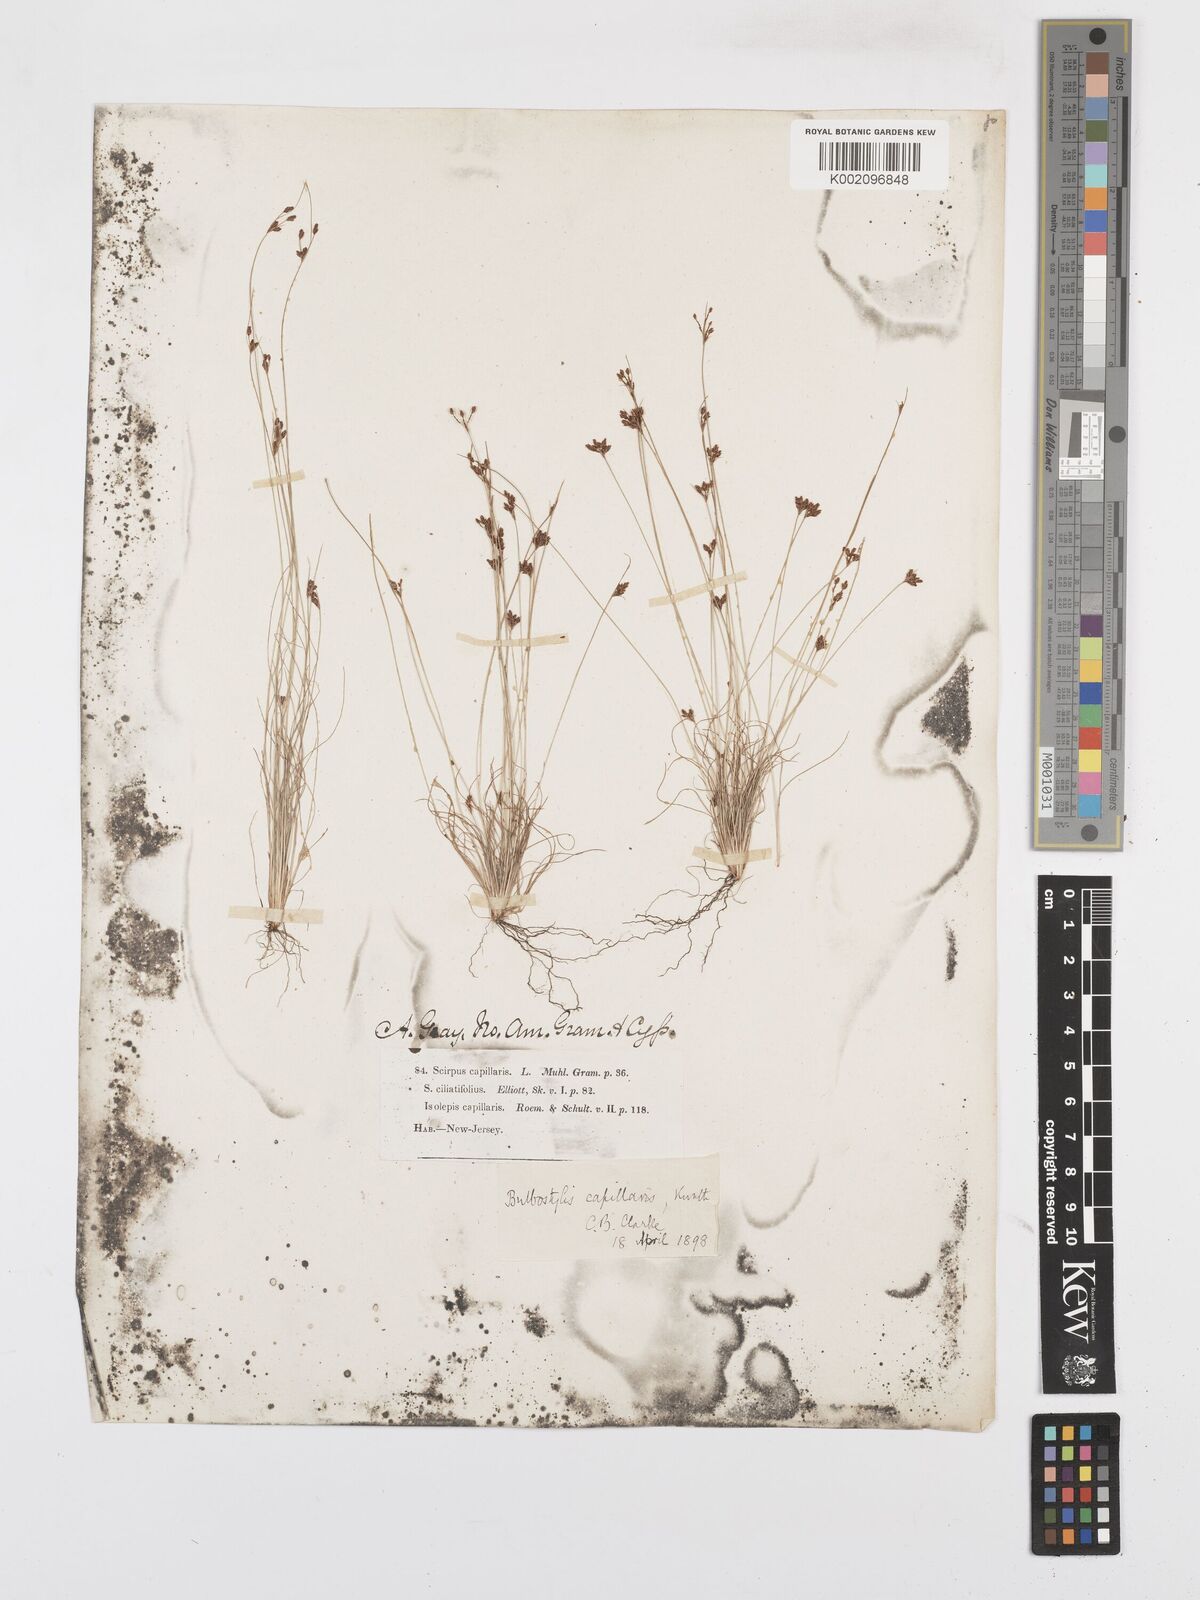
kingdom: Plantae
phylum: Tracheophyta
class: Liliopsida
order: Poales
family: Cyperaceae
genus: Bulbostylis
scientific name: Bulbostylis capillaris
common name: Densetuft hairsedge
